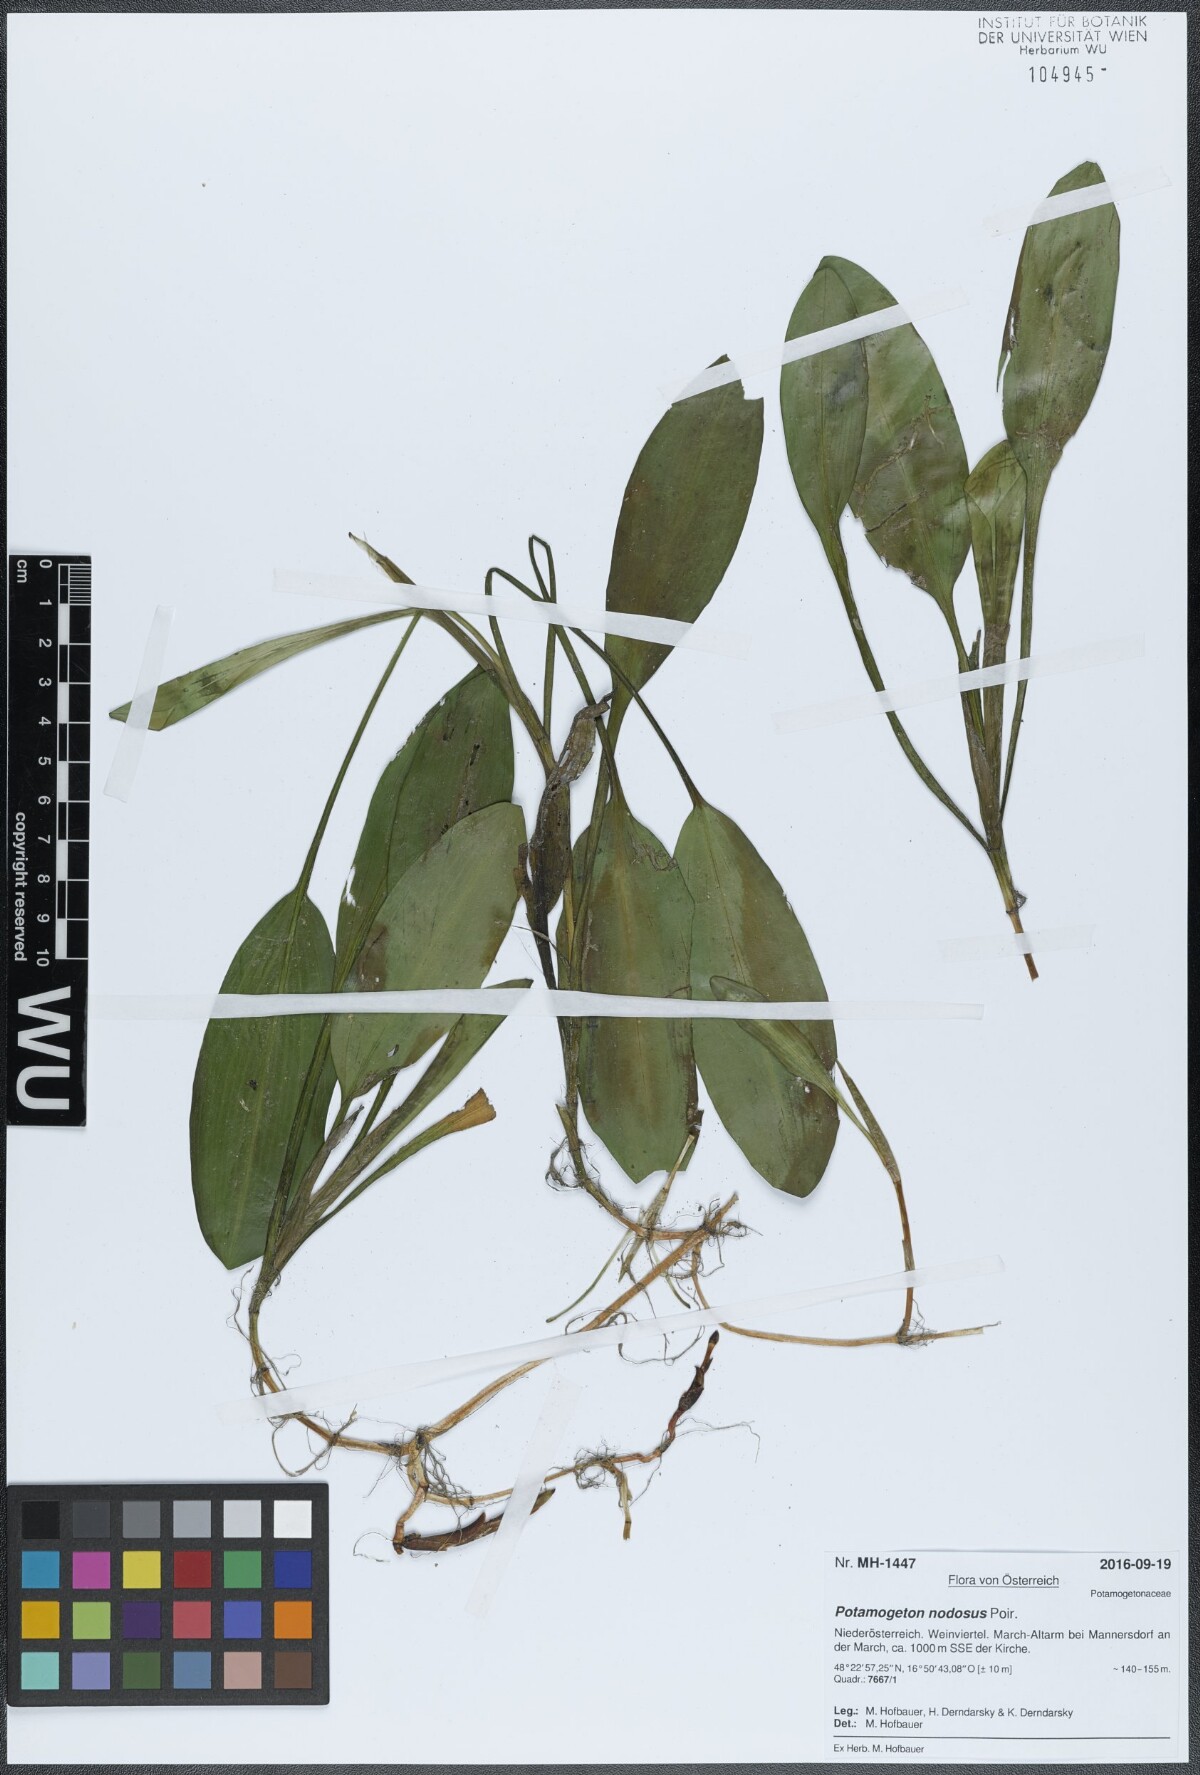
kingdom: Plantae
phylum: Tracheophyta
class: Liliopsida
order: Alismatales
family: Potamogetonaceae
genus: Potamogeton
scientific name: Potamogeton nodosus
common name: Loddon pondweed
